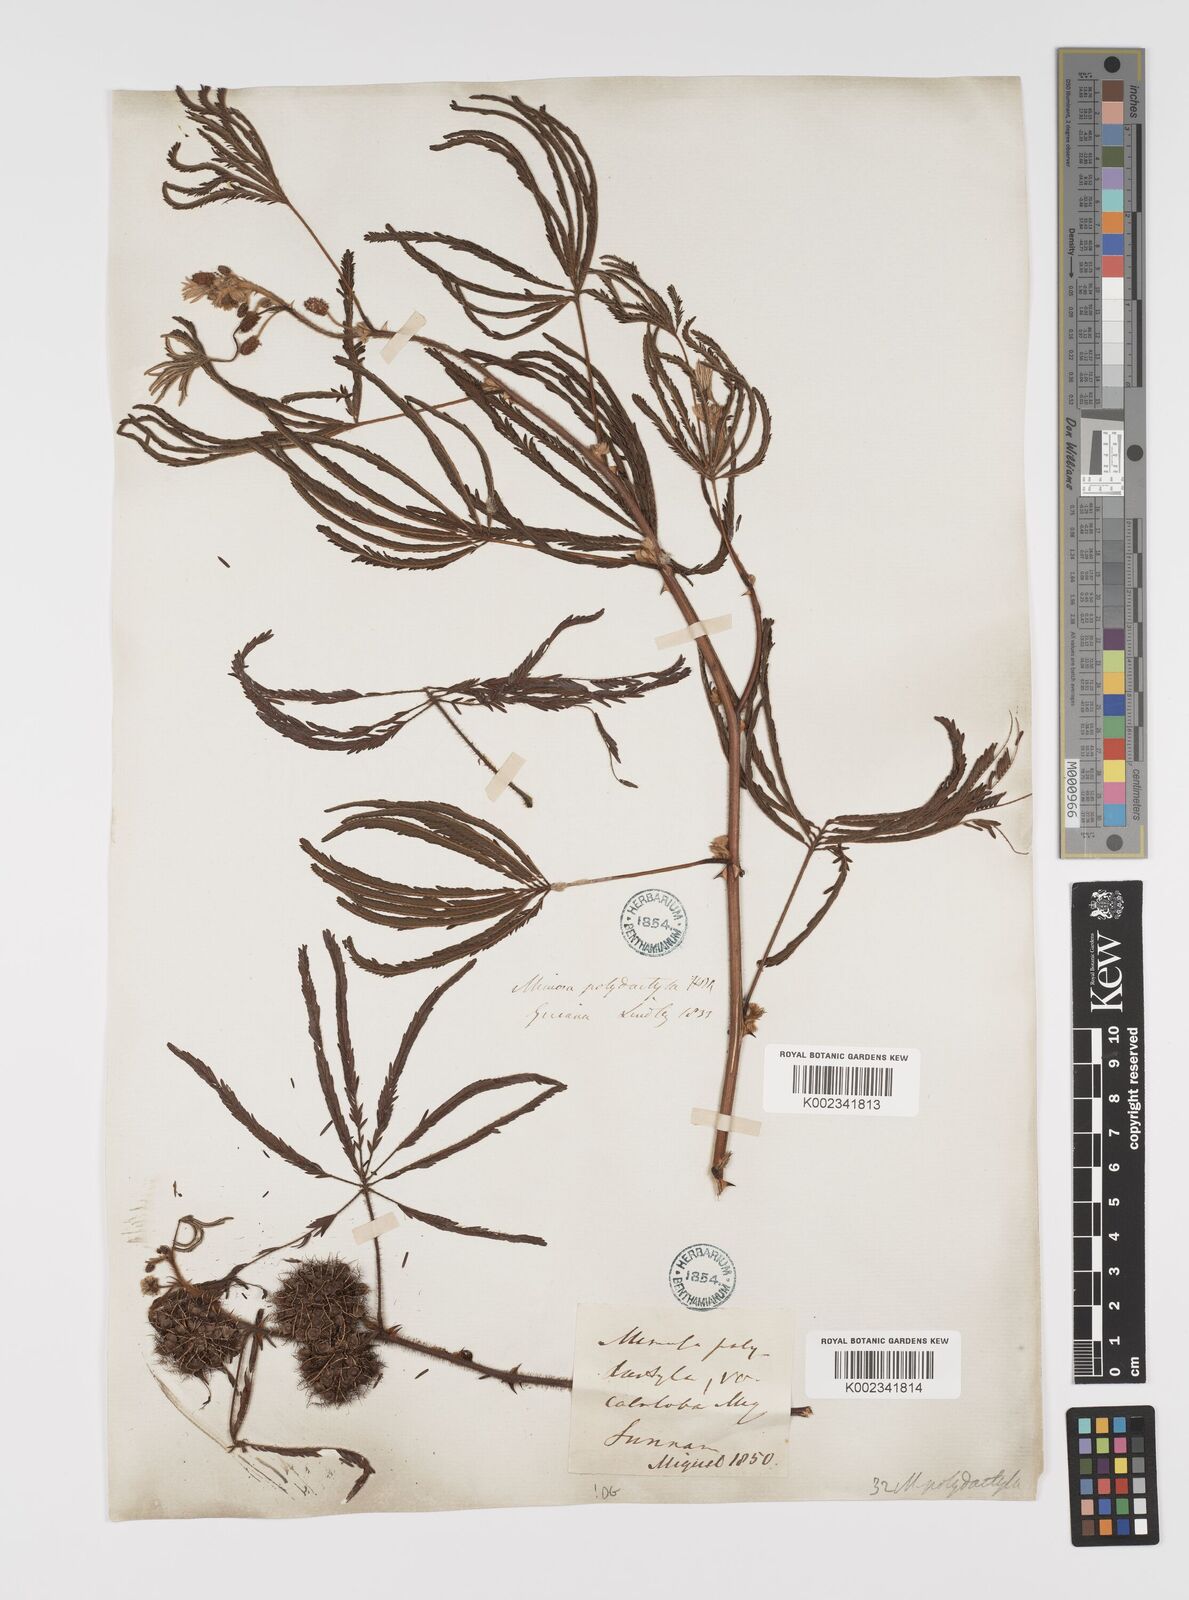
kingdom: Plantae
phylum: Tracheophyta
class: Magnoliopsida
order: Fabales
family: Fabaceae
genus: Mimosa
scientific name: Mimosa polydactyla
